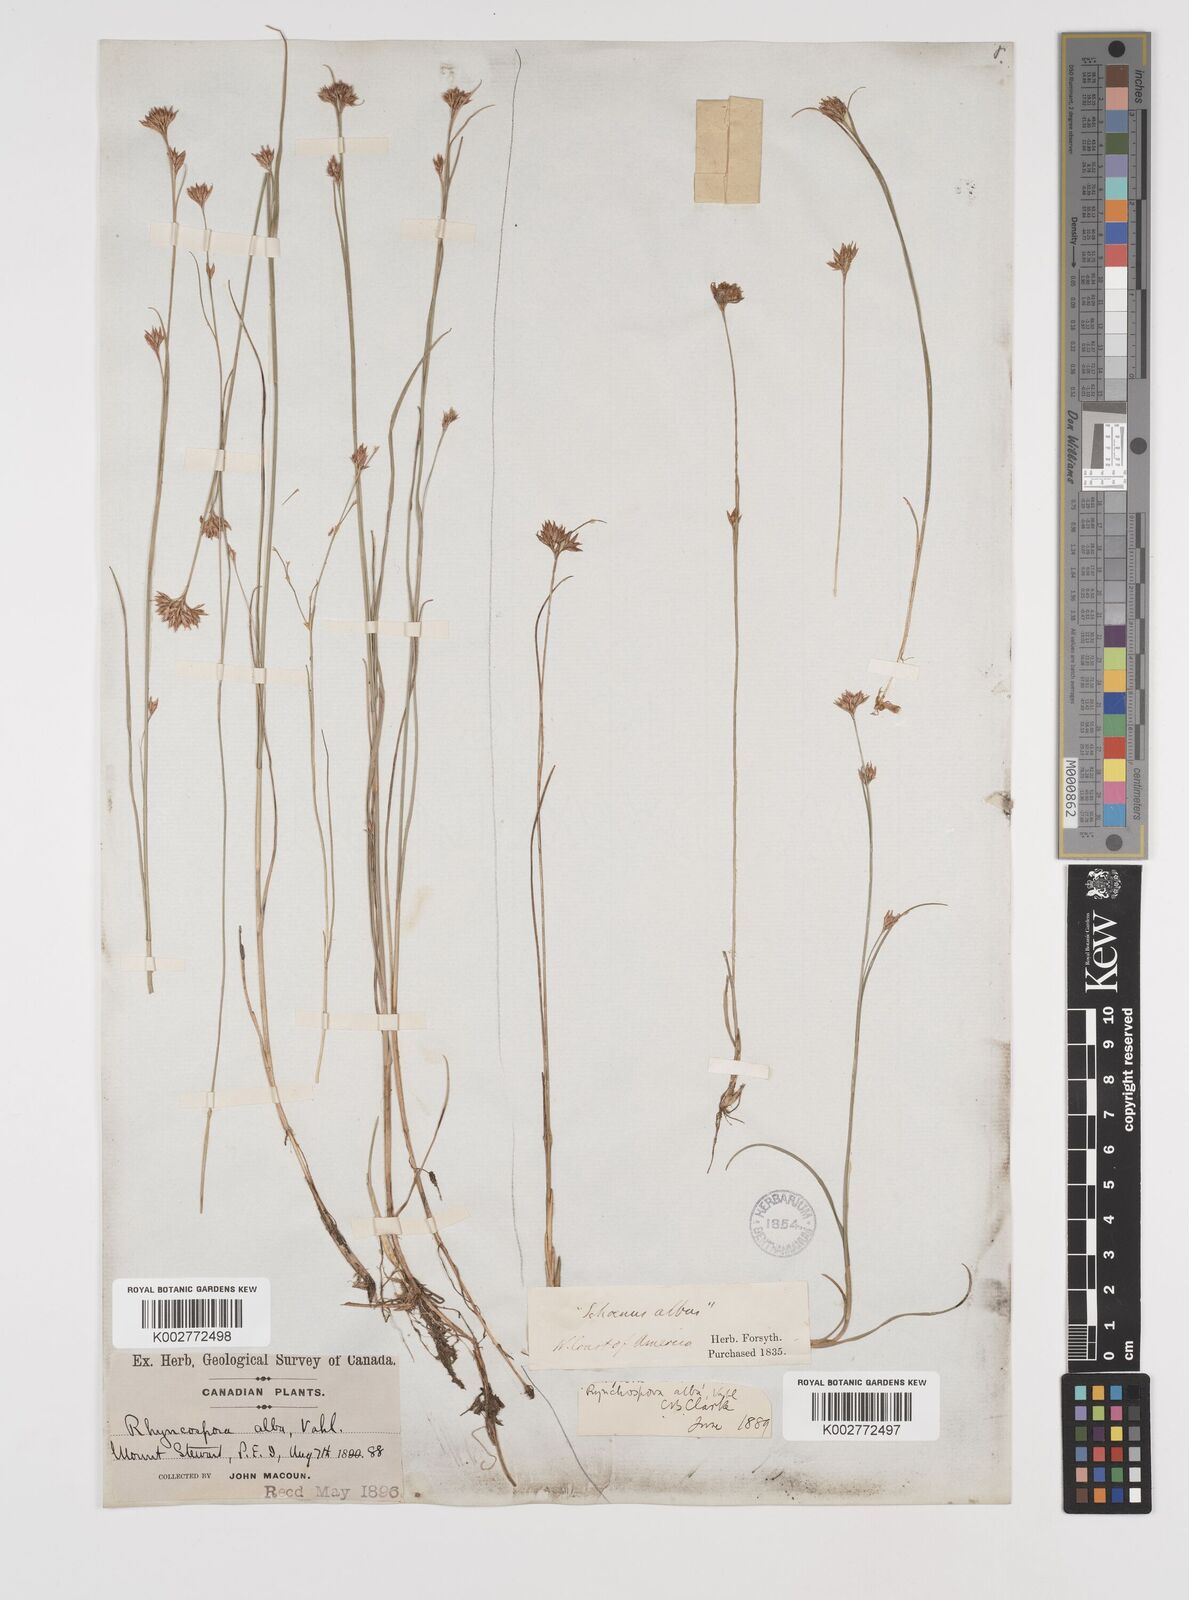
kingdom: Plantae
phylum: Tracheophyta
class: Liliopsida
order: Poales
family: Cyperaceae
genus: Rhynchospora
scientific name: Rhynchospora alba
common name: White beak-sedge
